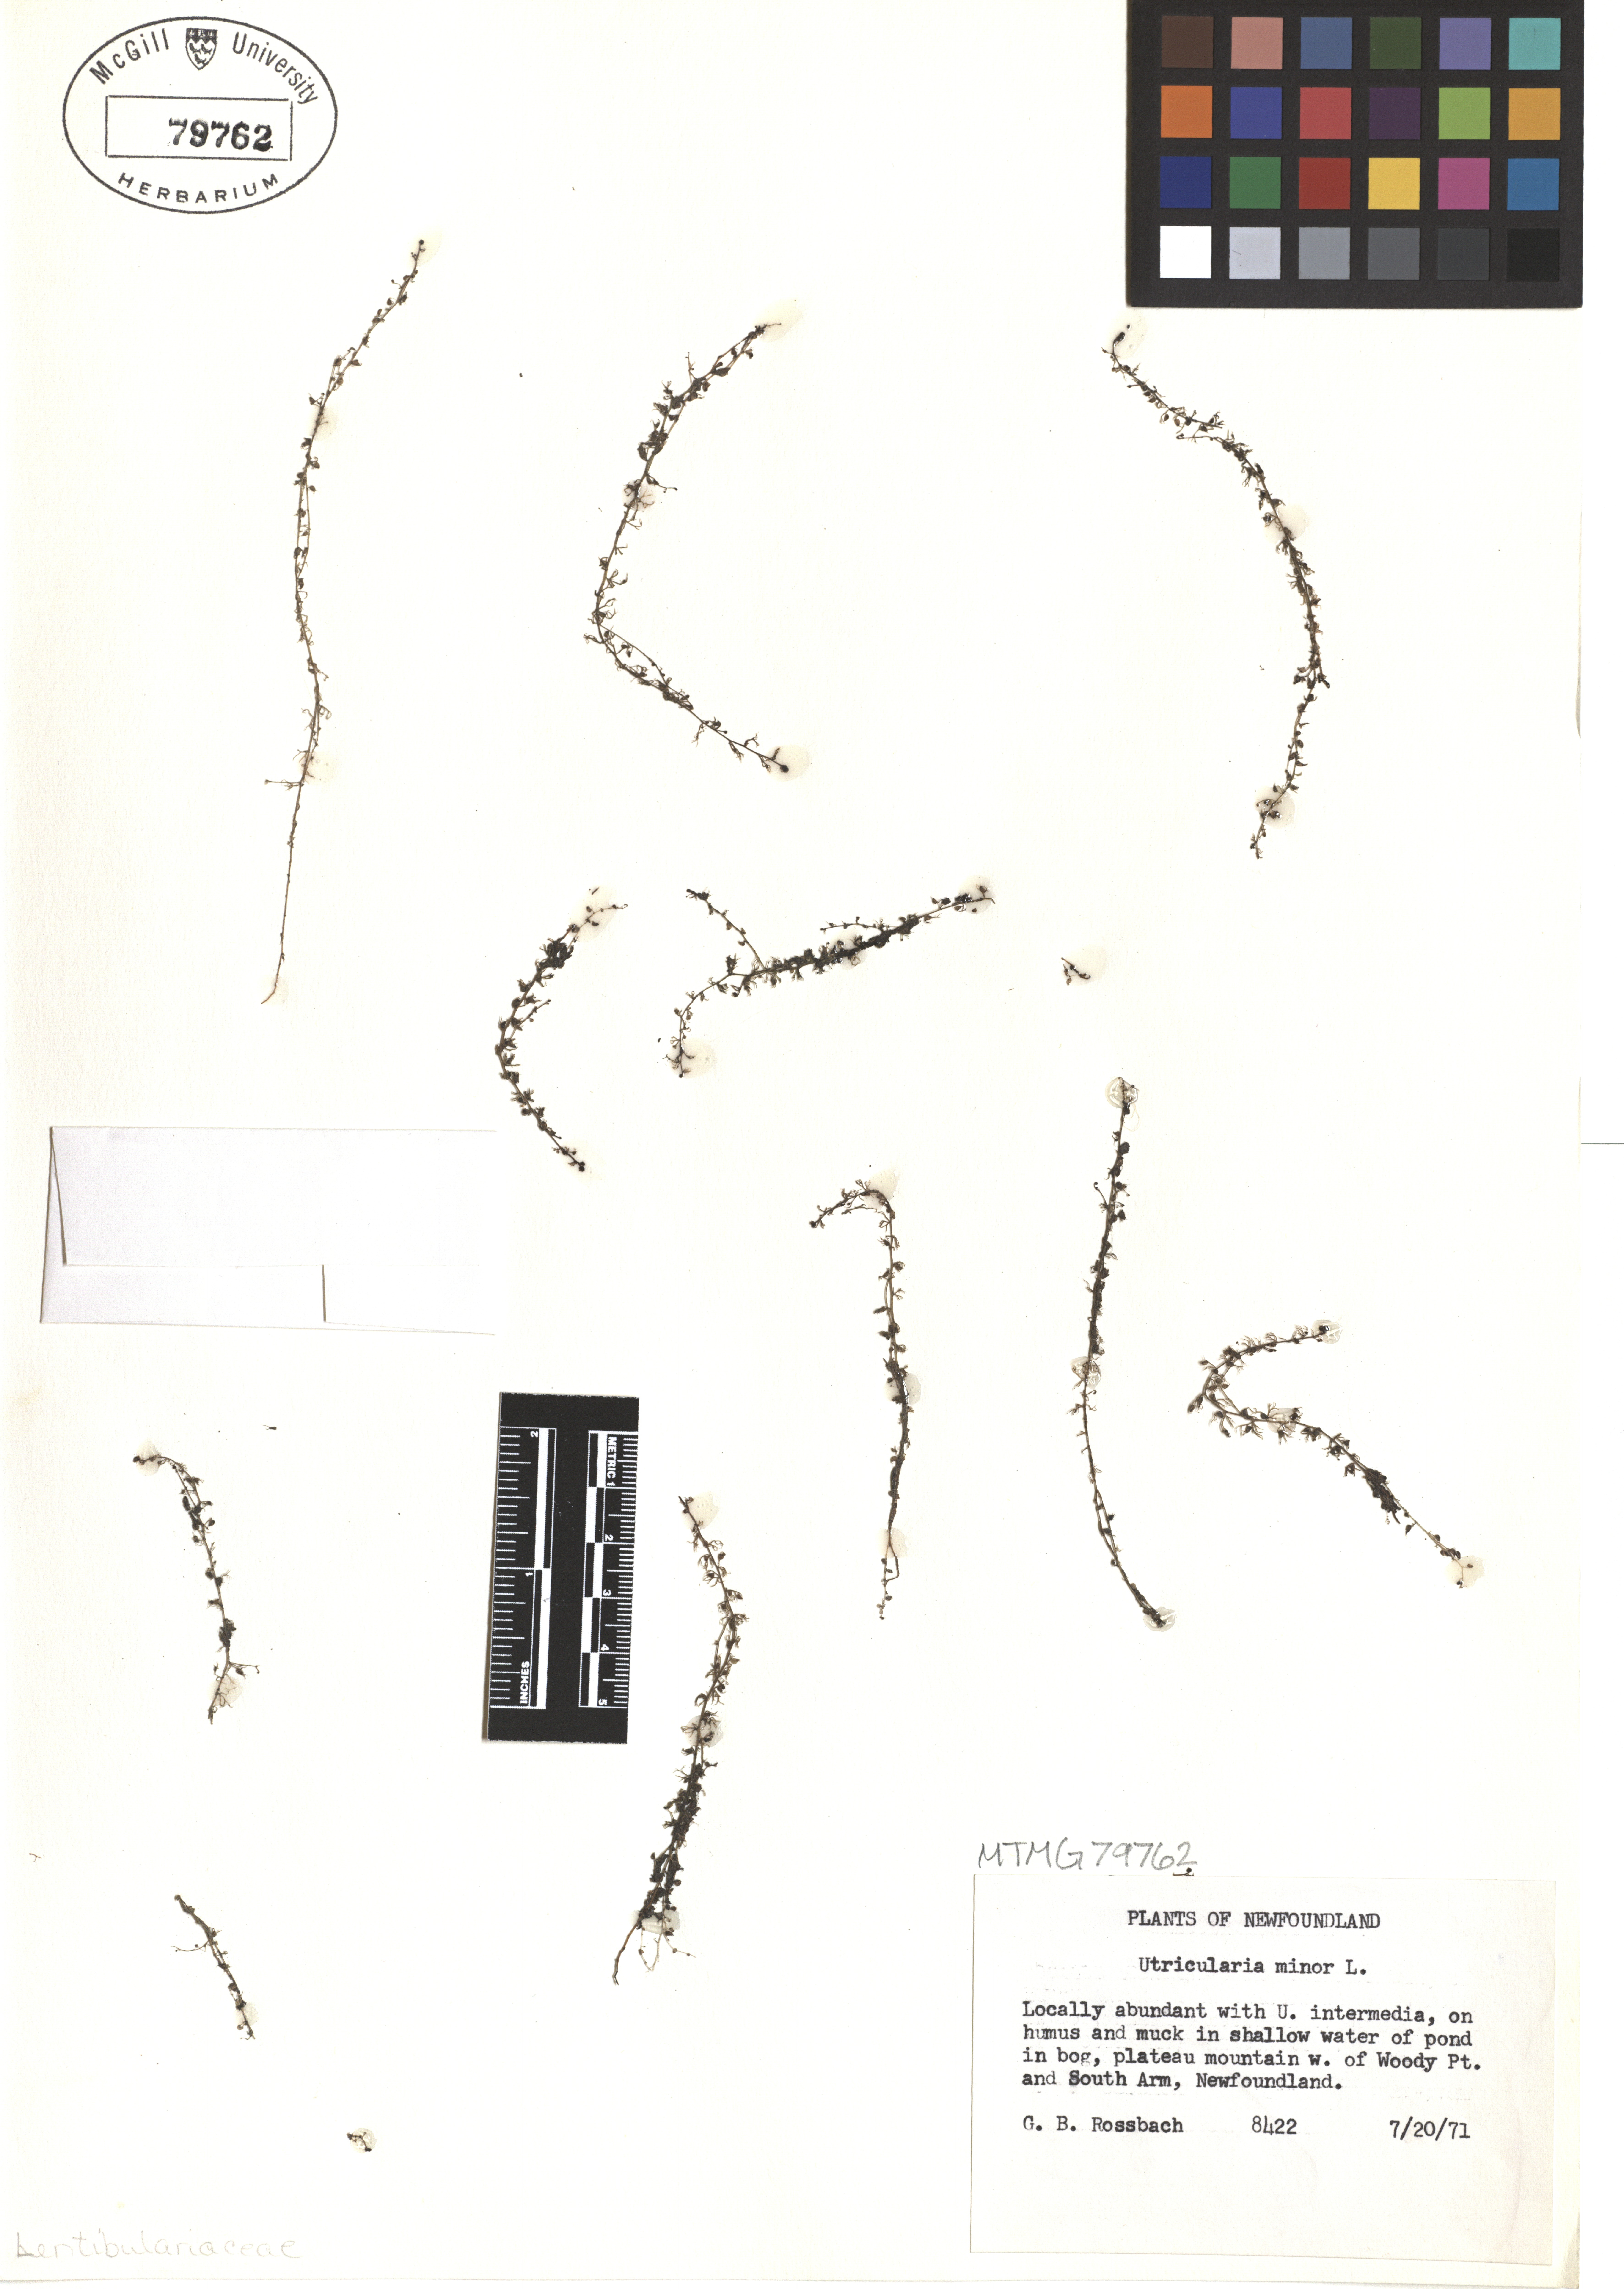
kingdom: Plantae
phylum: Tracheophyta
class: Magnoliopsida
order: Lamiales
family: Lentibulariaceae
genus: Utricularia
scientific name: Utricularia minor
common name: Lesser bladderwort
